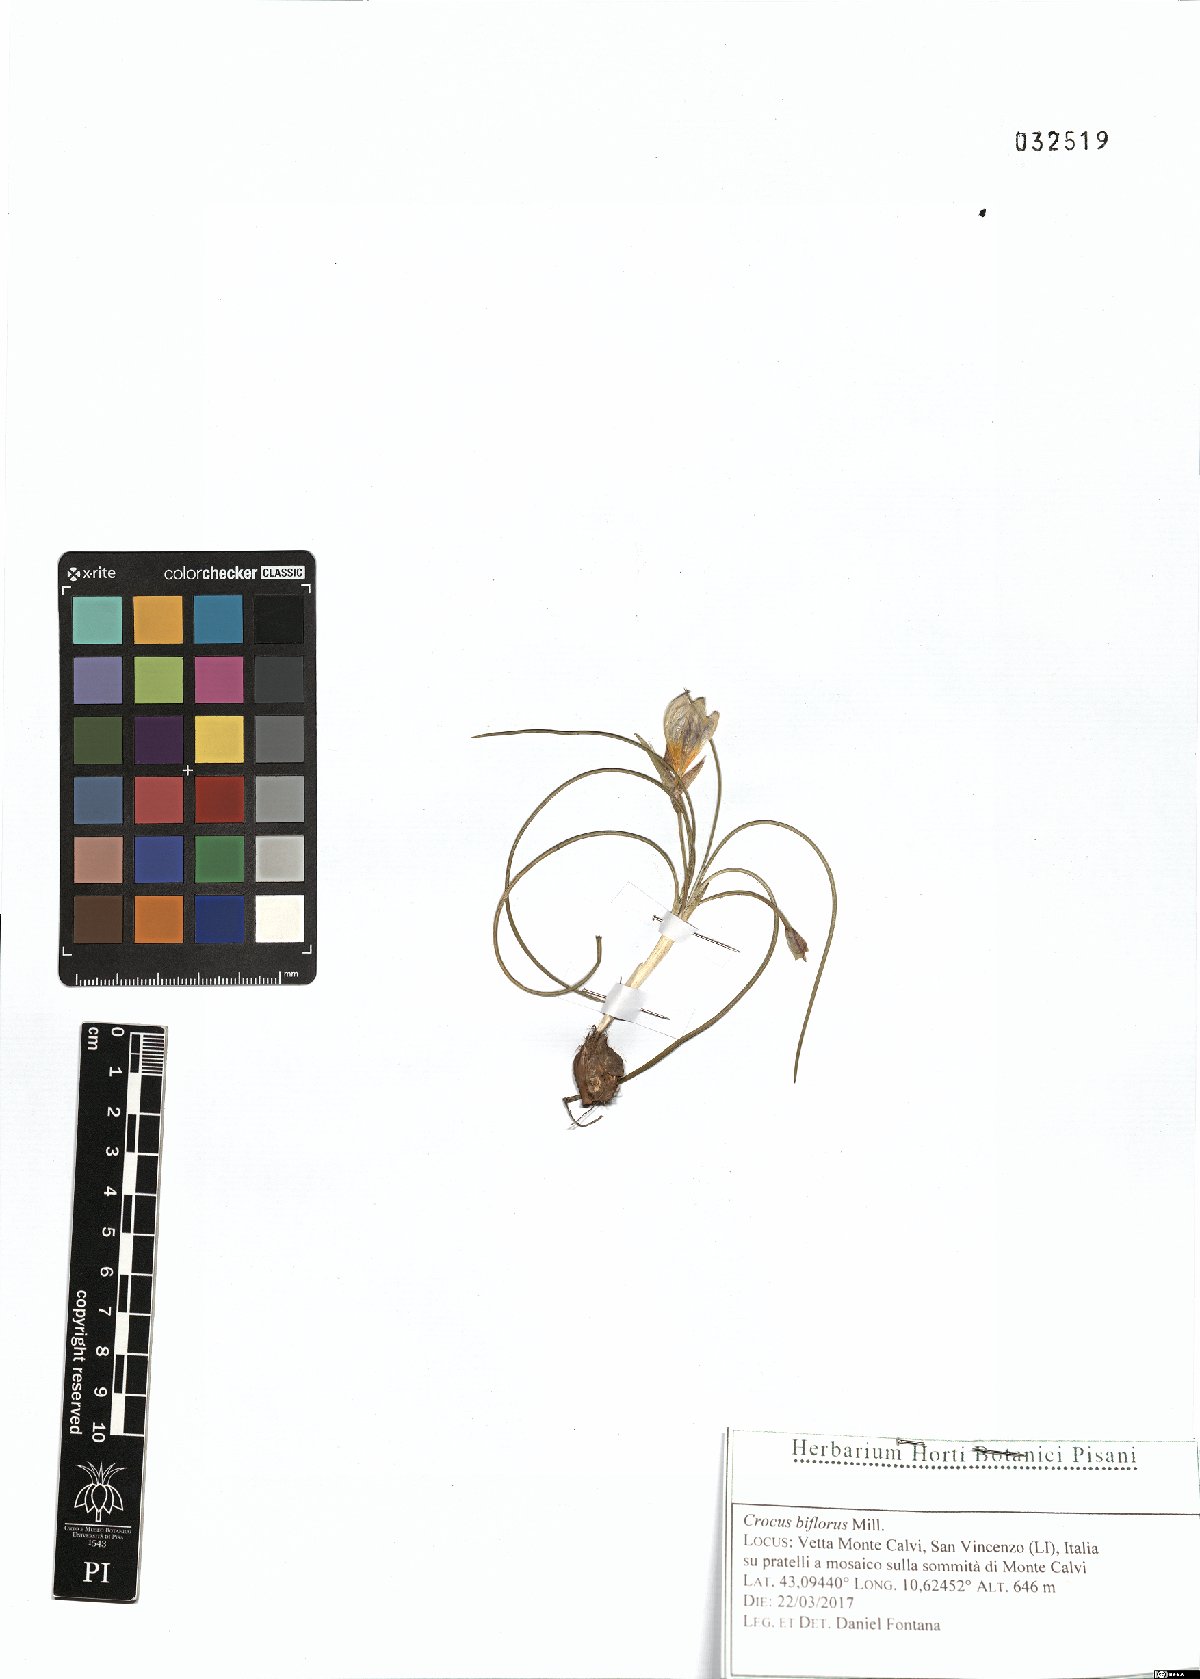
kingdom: Plantae
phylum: Tracheophyta
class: Liliopsida
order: Asparagales
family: Iridaceae
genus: Crocus
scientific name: Crocus biflorus
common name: Silvery crocus
